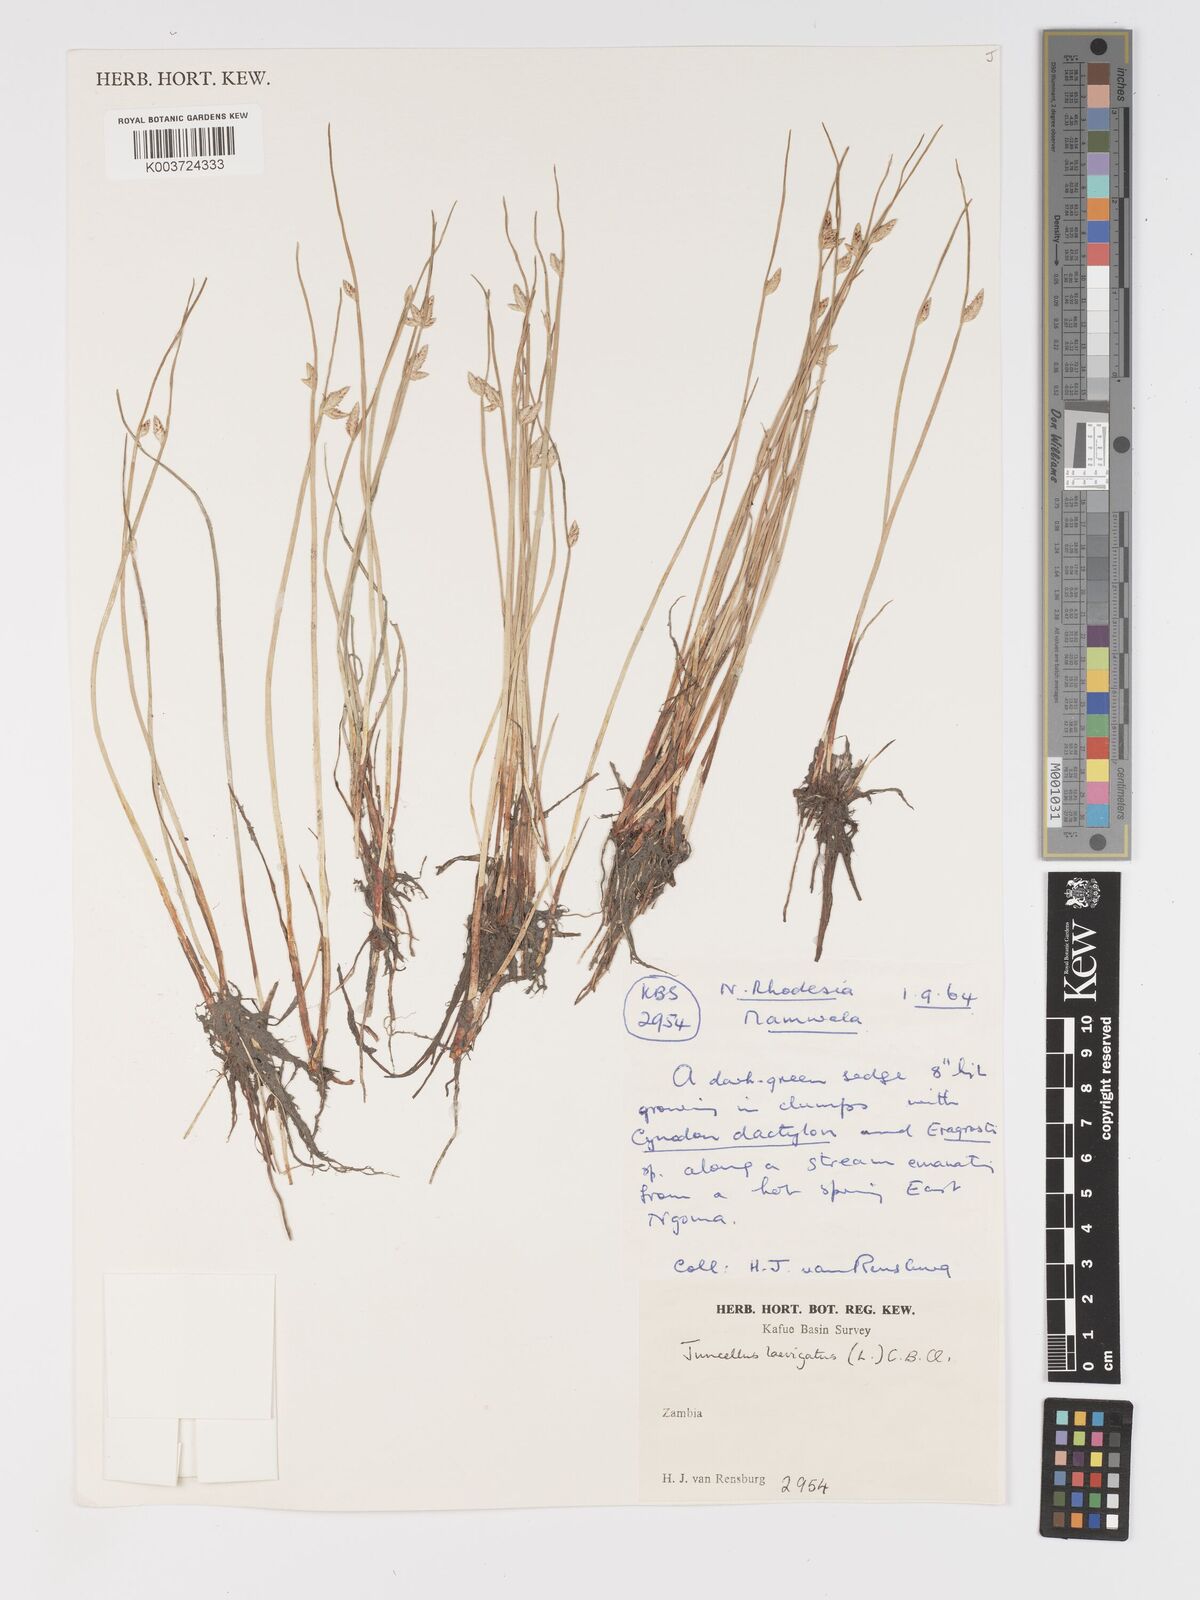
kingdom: Plantae
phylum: Tracheophyta
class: Liliopsida
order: Poales
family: Cyperaceae
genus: Cyperus
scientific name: Cyperus laevigatus
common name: Smooth flat sedge
